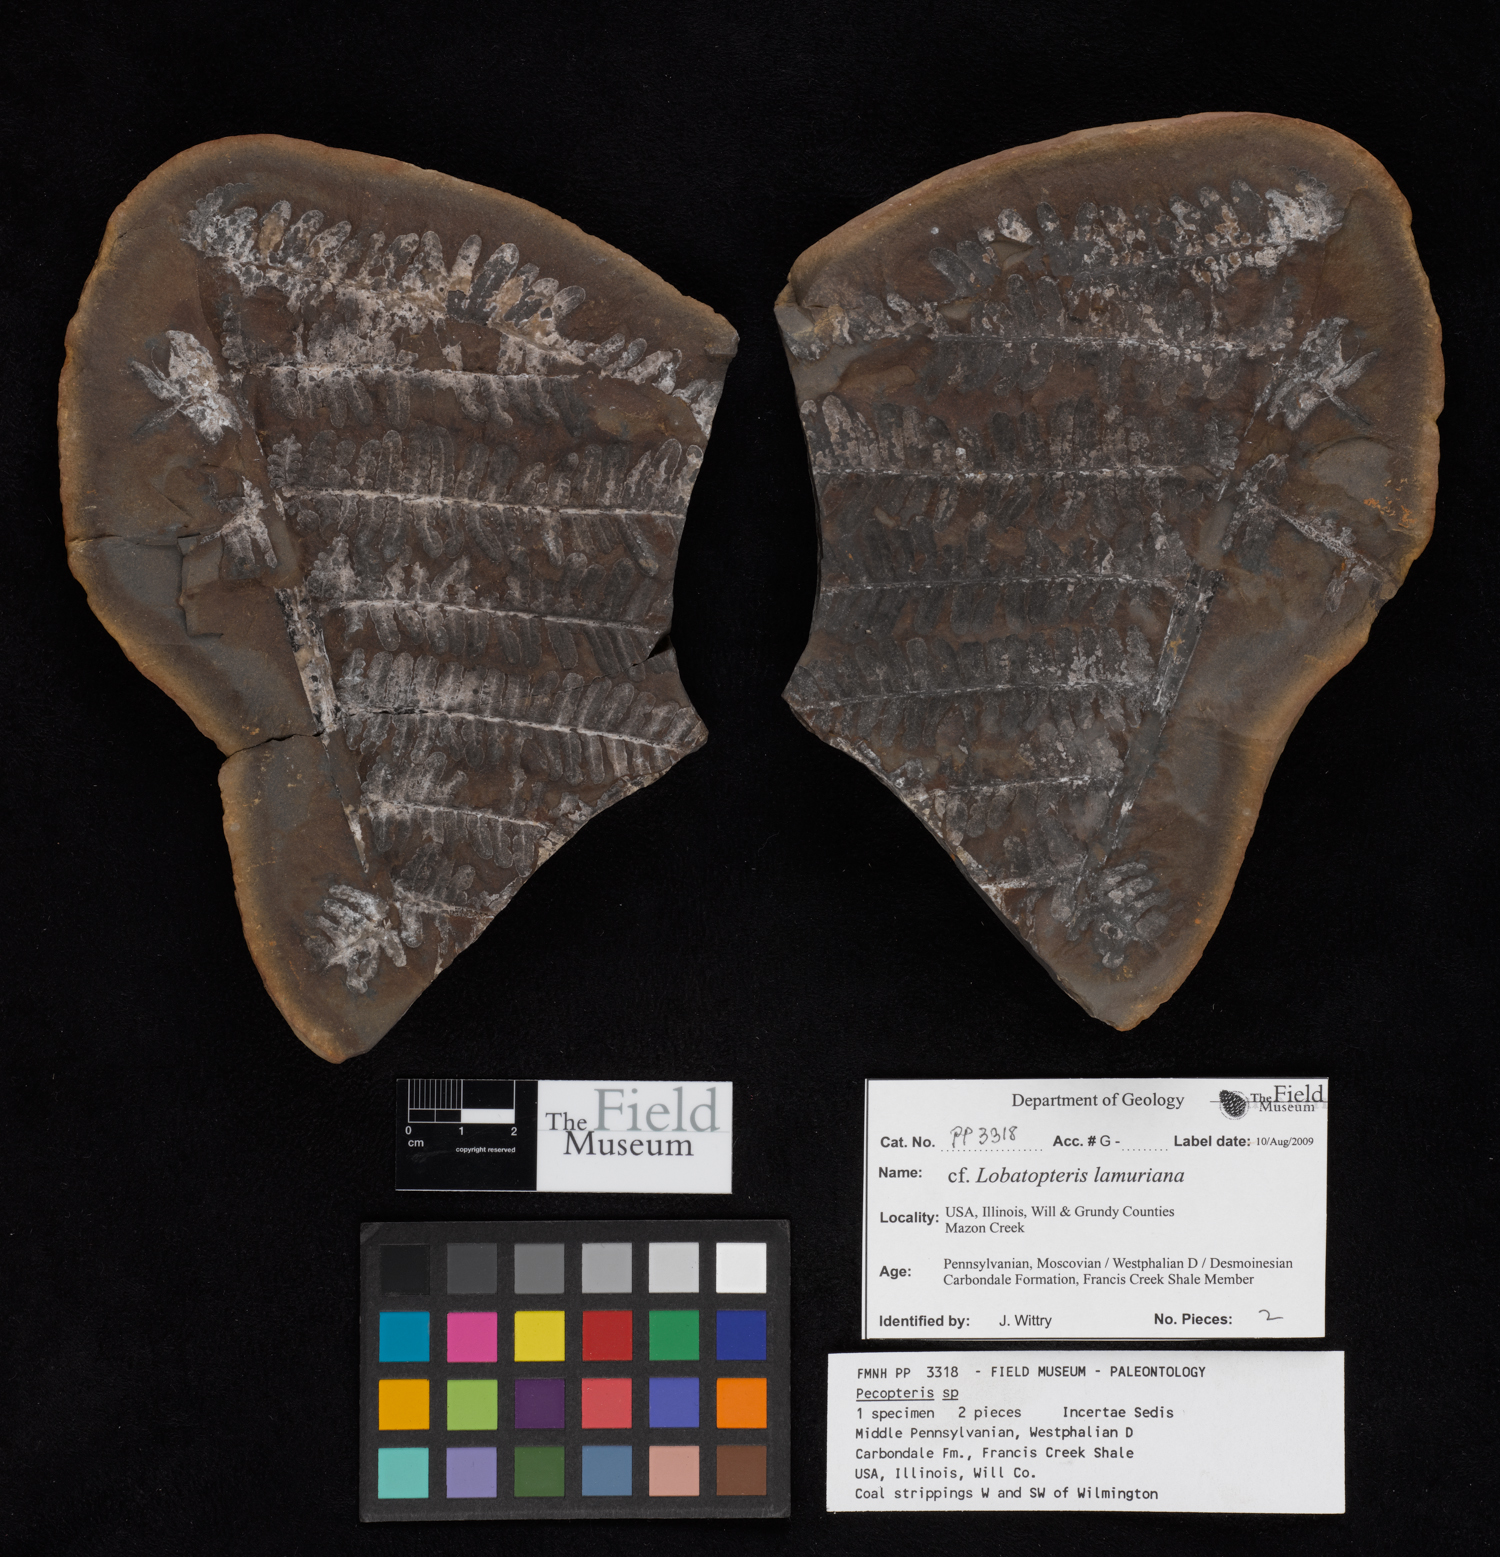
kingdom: Plantae
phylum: Tracheophyta
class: Polypodiopsida
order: Marattiales
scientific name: Marattiales
